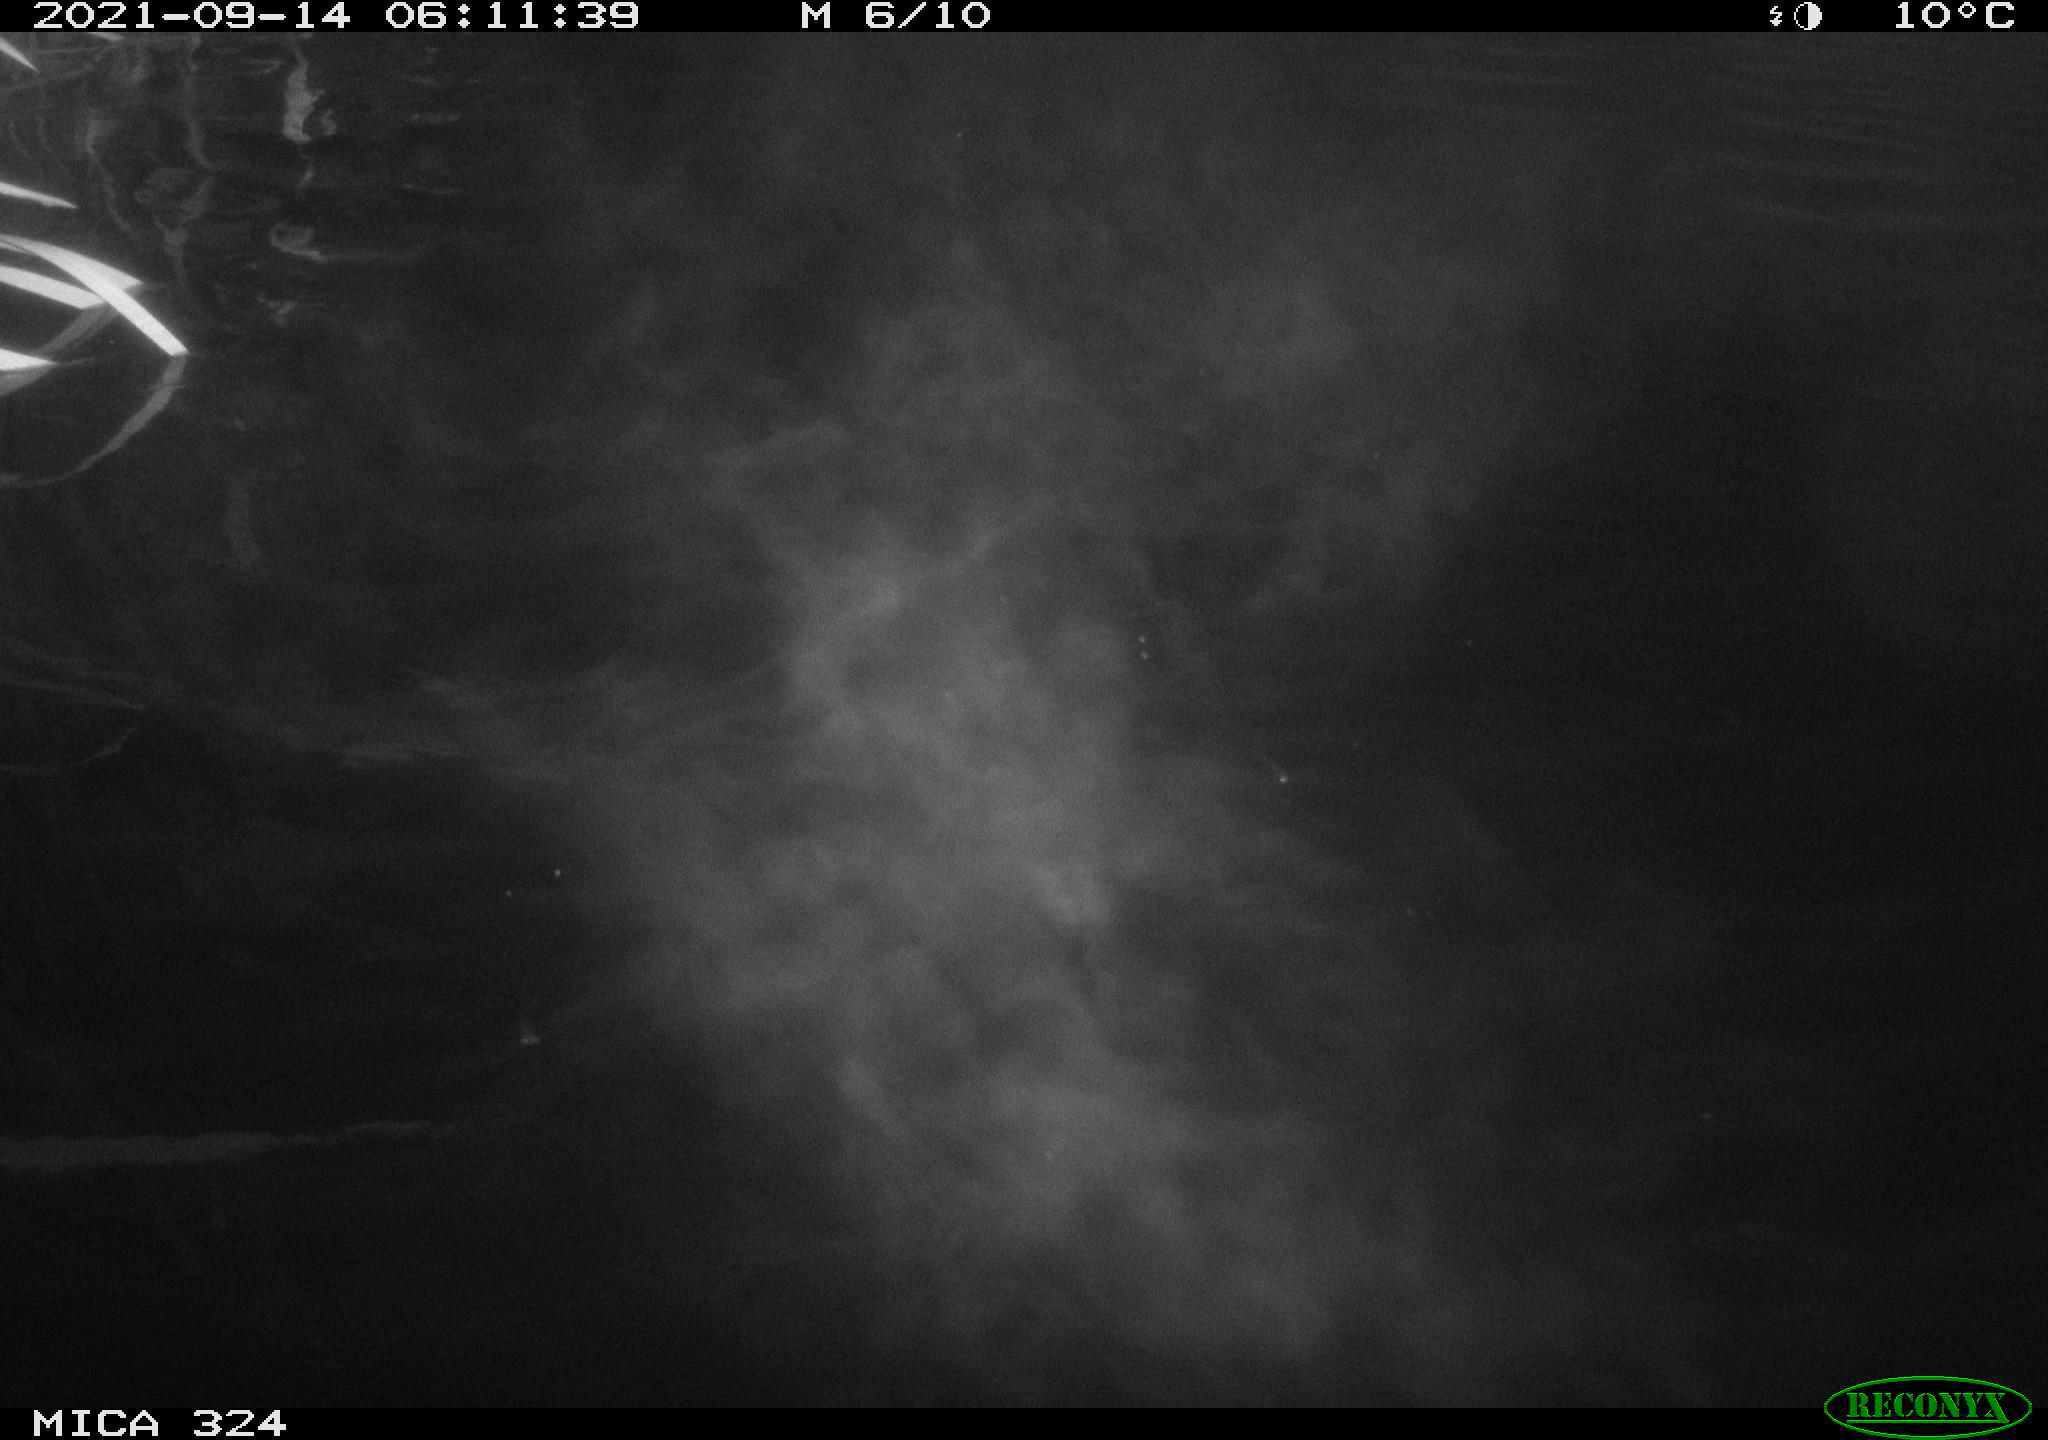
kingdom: Animalia
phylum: Chordata
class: Mammalia
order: Rodentia
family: Cricetidae
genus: Ondatra
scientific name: Ondatra zibethicus
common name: Muskrat
